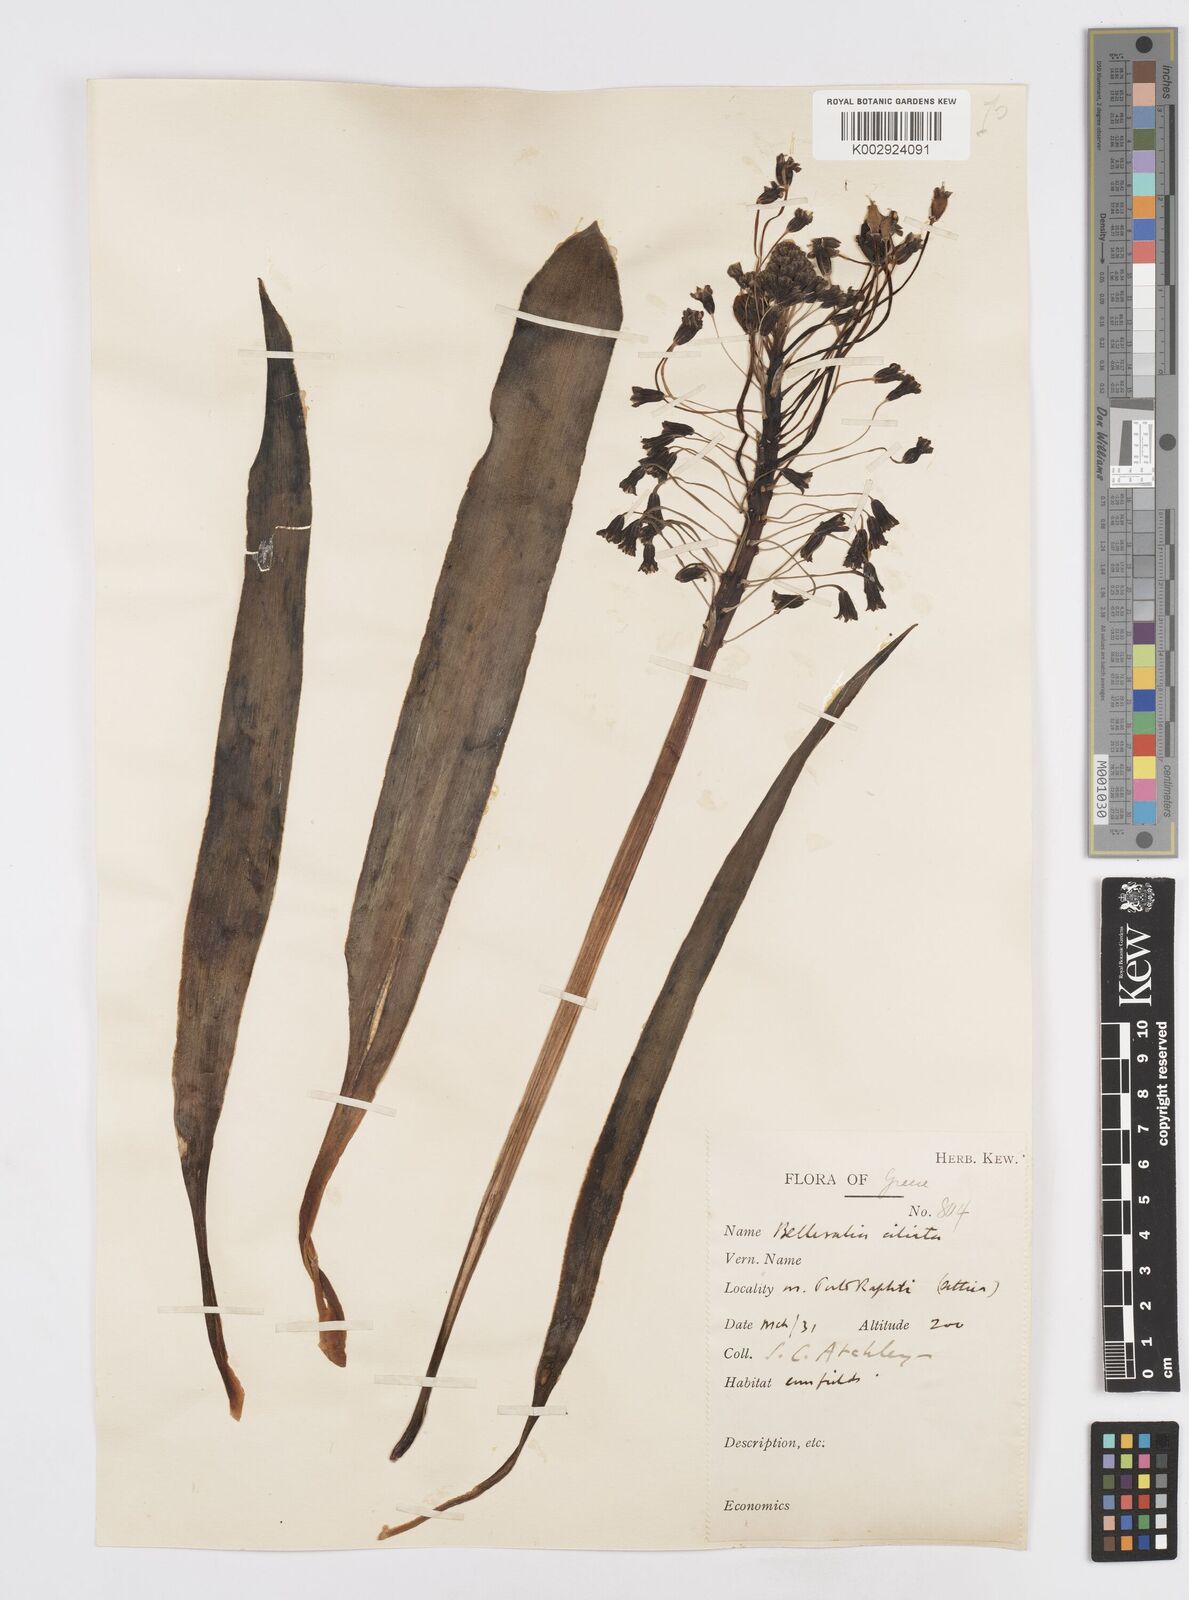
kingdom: Plantae
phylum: Tracheophyta
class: Liliopsida
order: Asparagales
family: Asparagaceae
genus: Bellevalia
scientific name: Bellevalia ciliata
